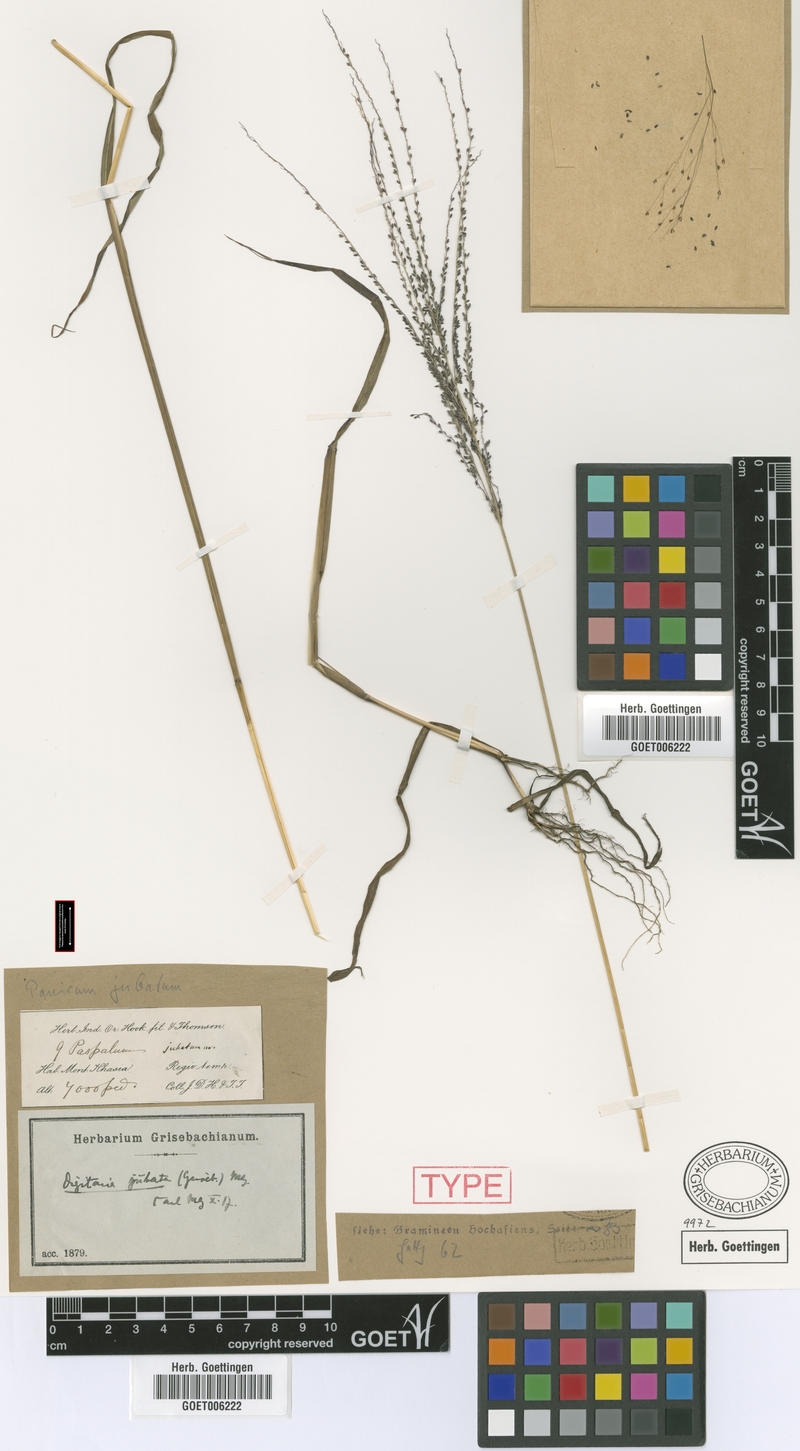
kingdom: Plantae
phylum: Tracheophyta
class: Liliopsida
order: Poales
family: Poaceae
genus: Digitaria
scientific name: Digitaria jubata
